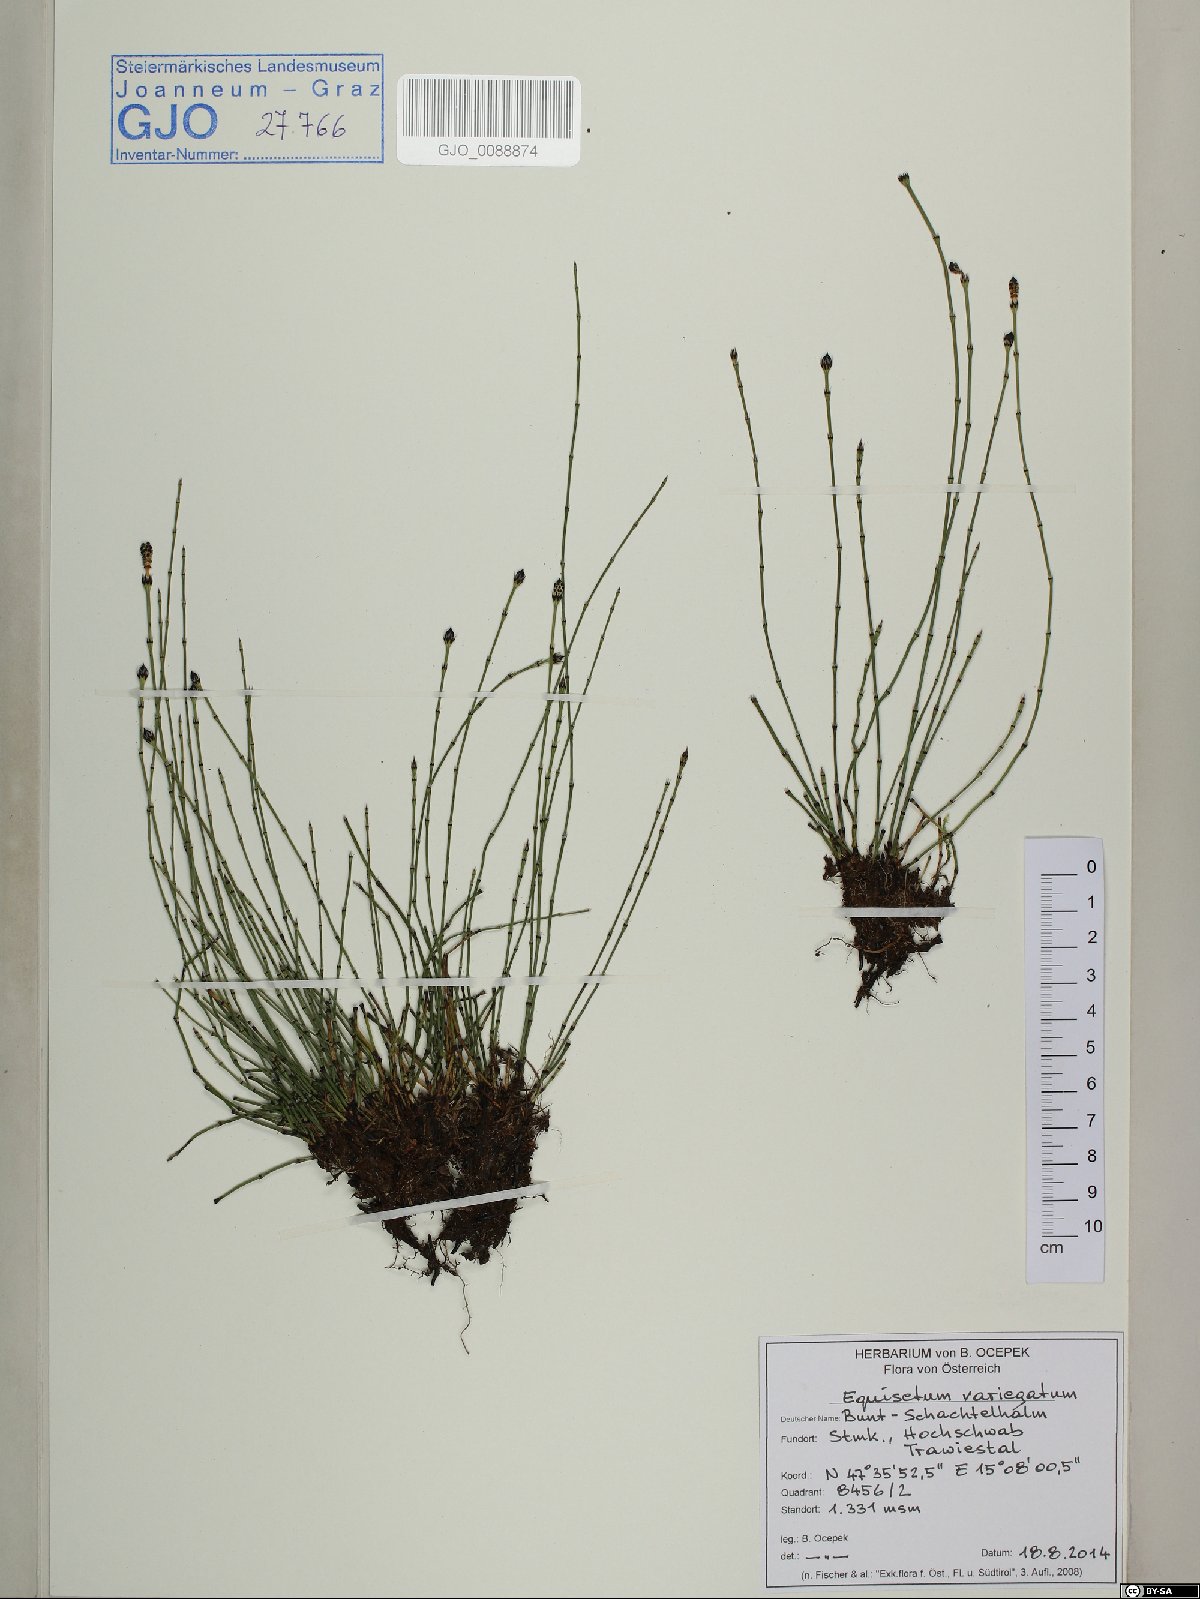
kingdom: Plantae
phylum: Tracheophyta
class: Polypodiopsida
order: Equisetales
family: Equisetaceae
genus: Equisetum
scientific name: Equisetum variegatum
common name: Variegated horsetail
